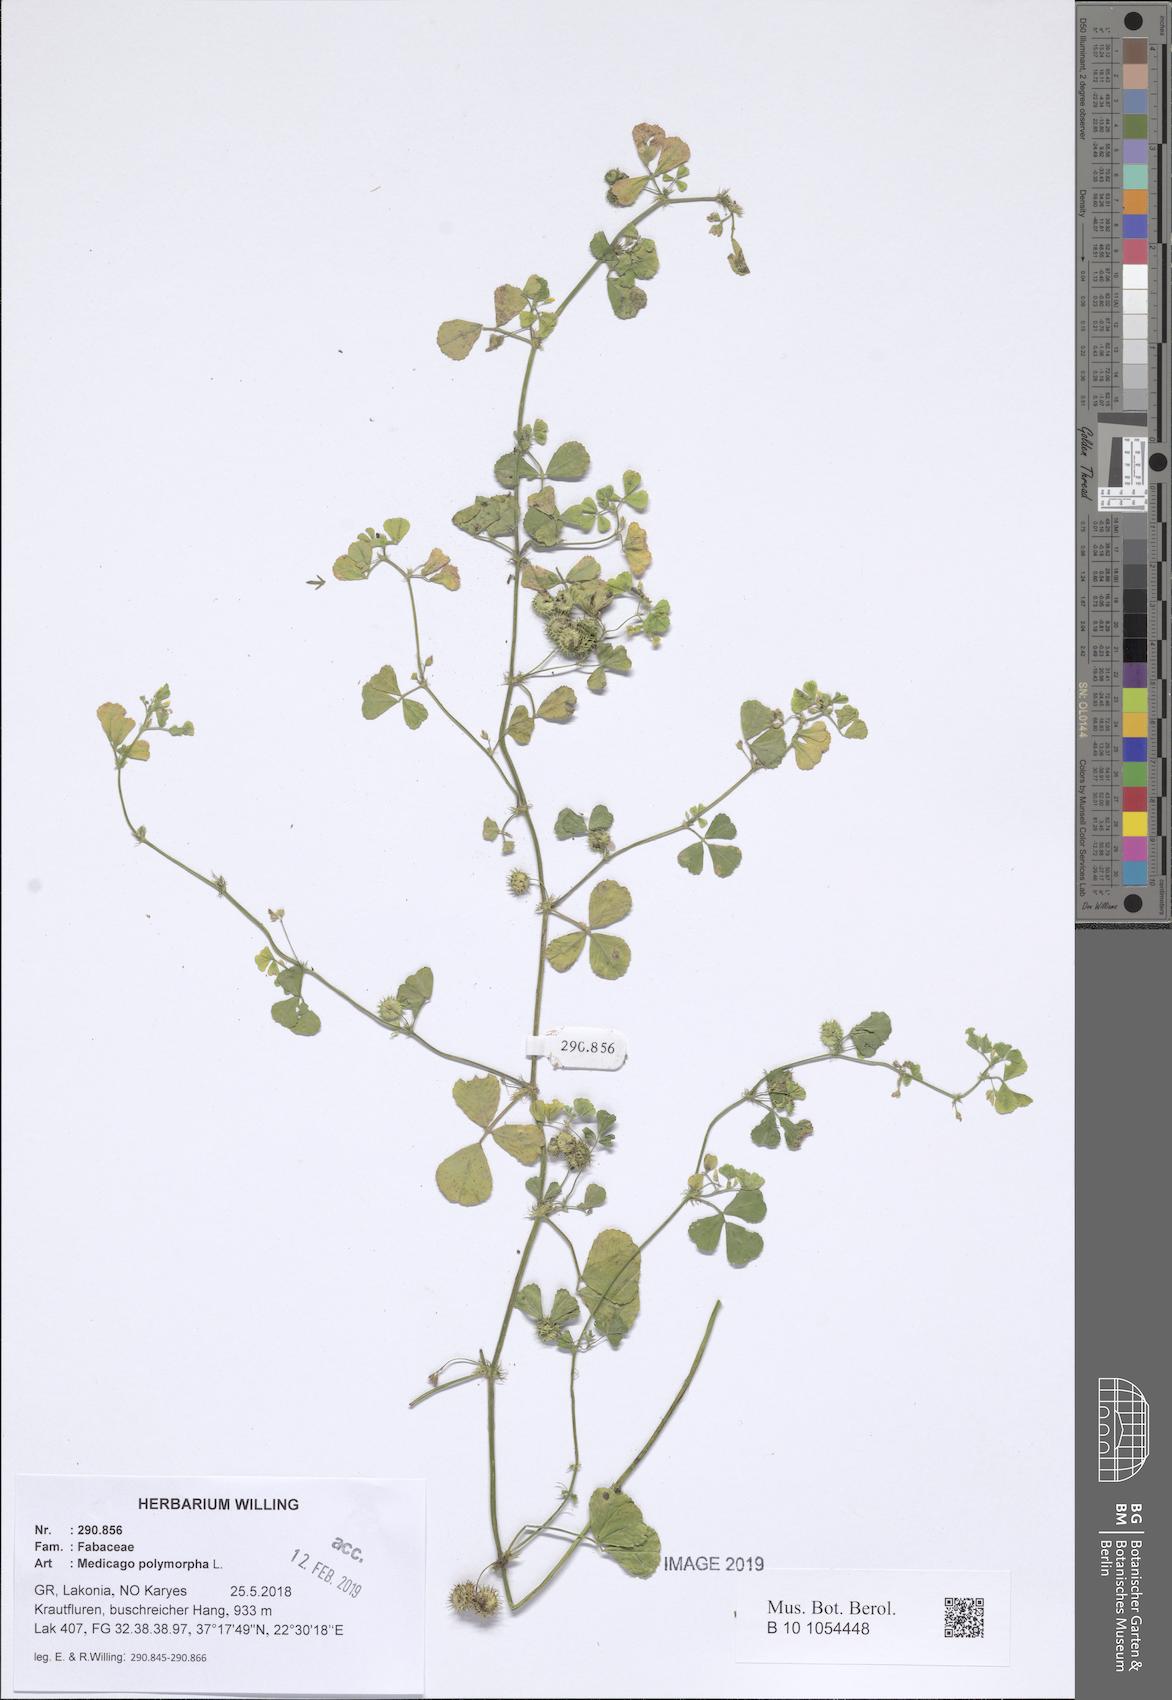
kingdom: Plantae
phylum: Tracheophyta
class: Magnoliopsida
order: Fabales
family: Fabaceae
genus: Medicago
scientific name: Medicago polymorpha
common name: Burclover
